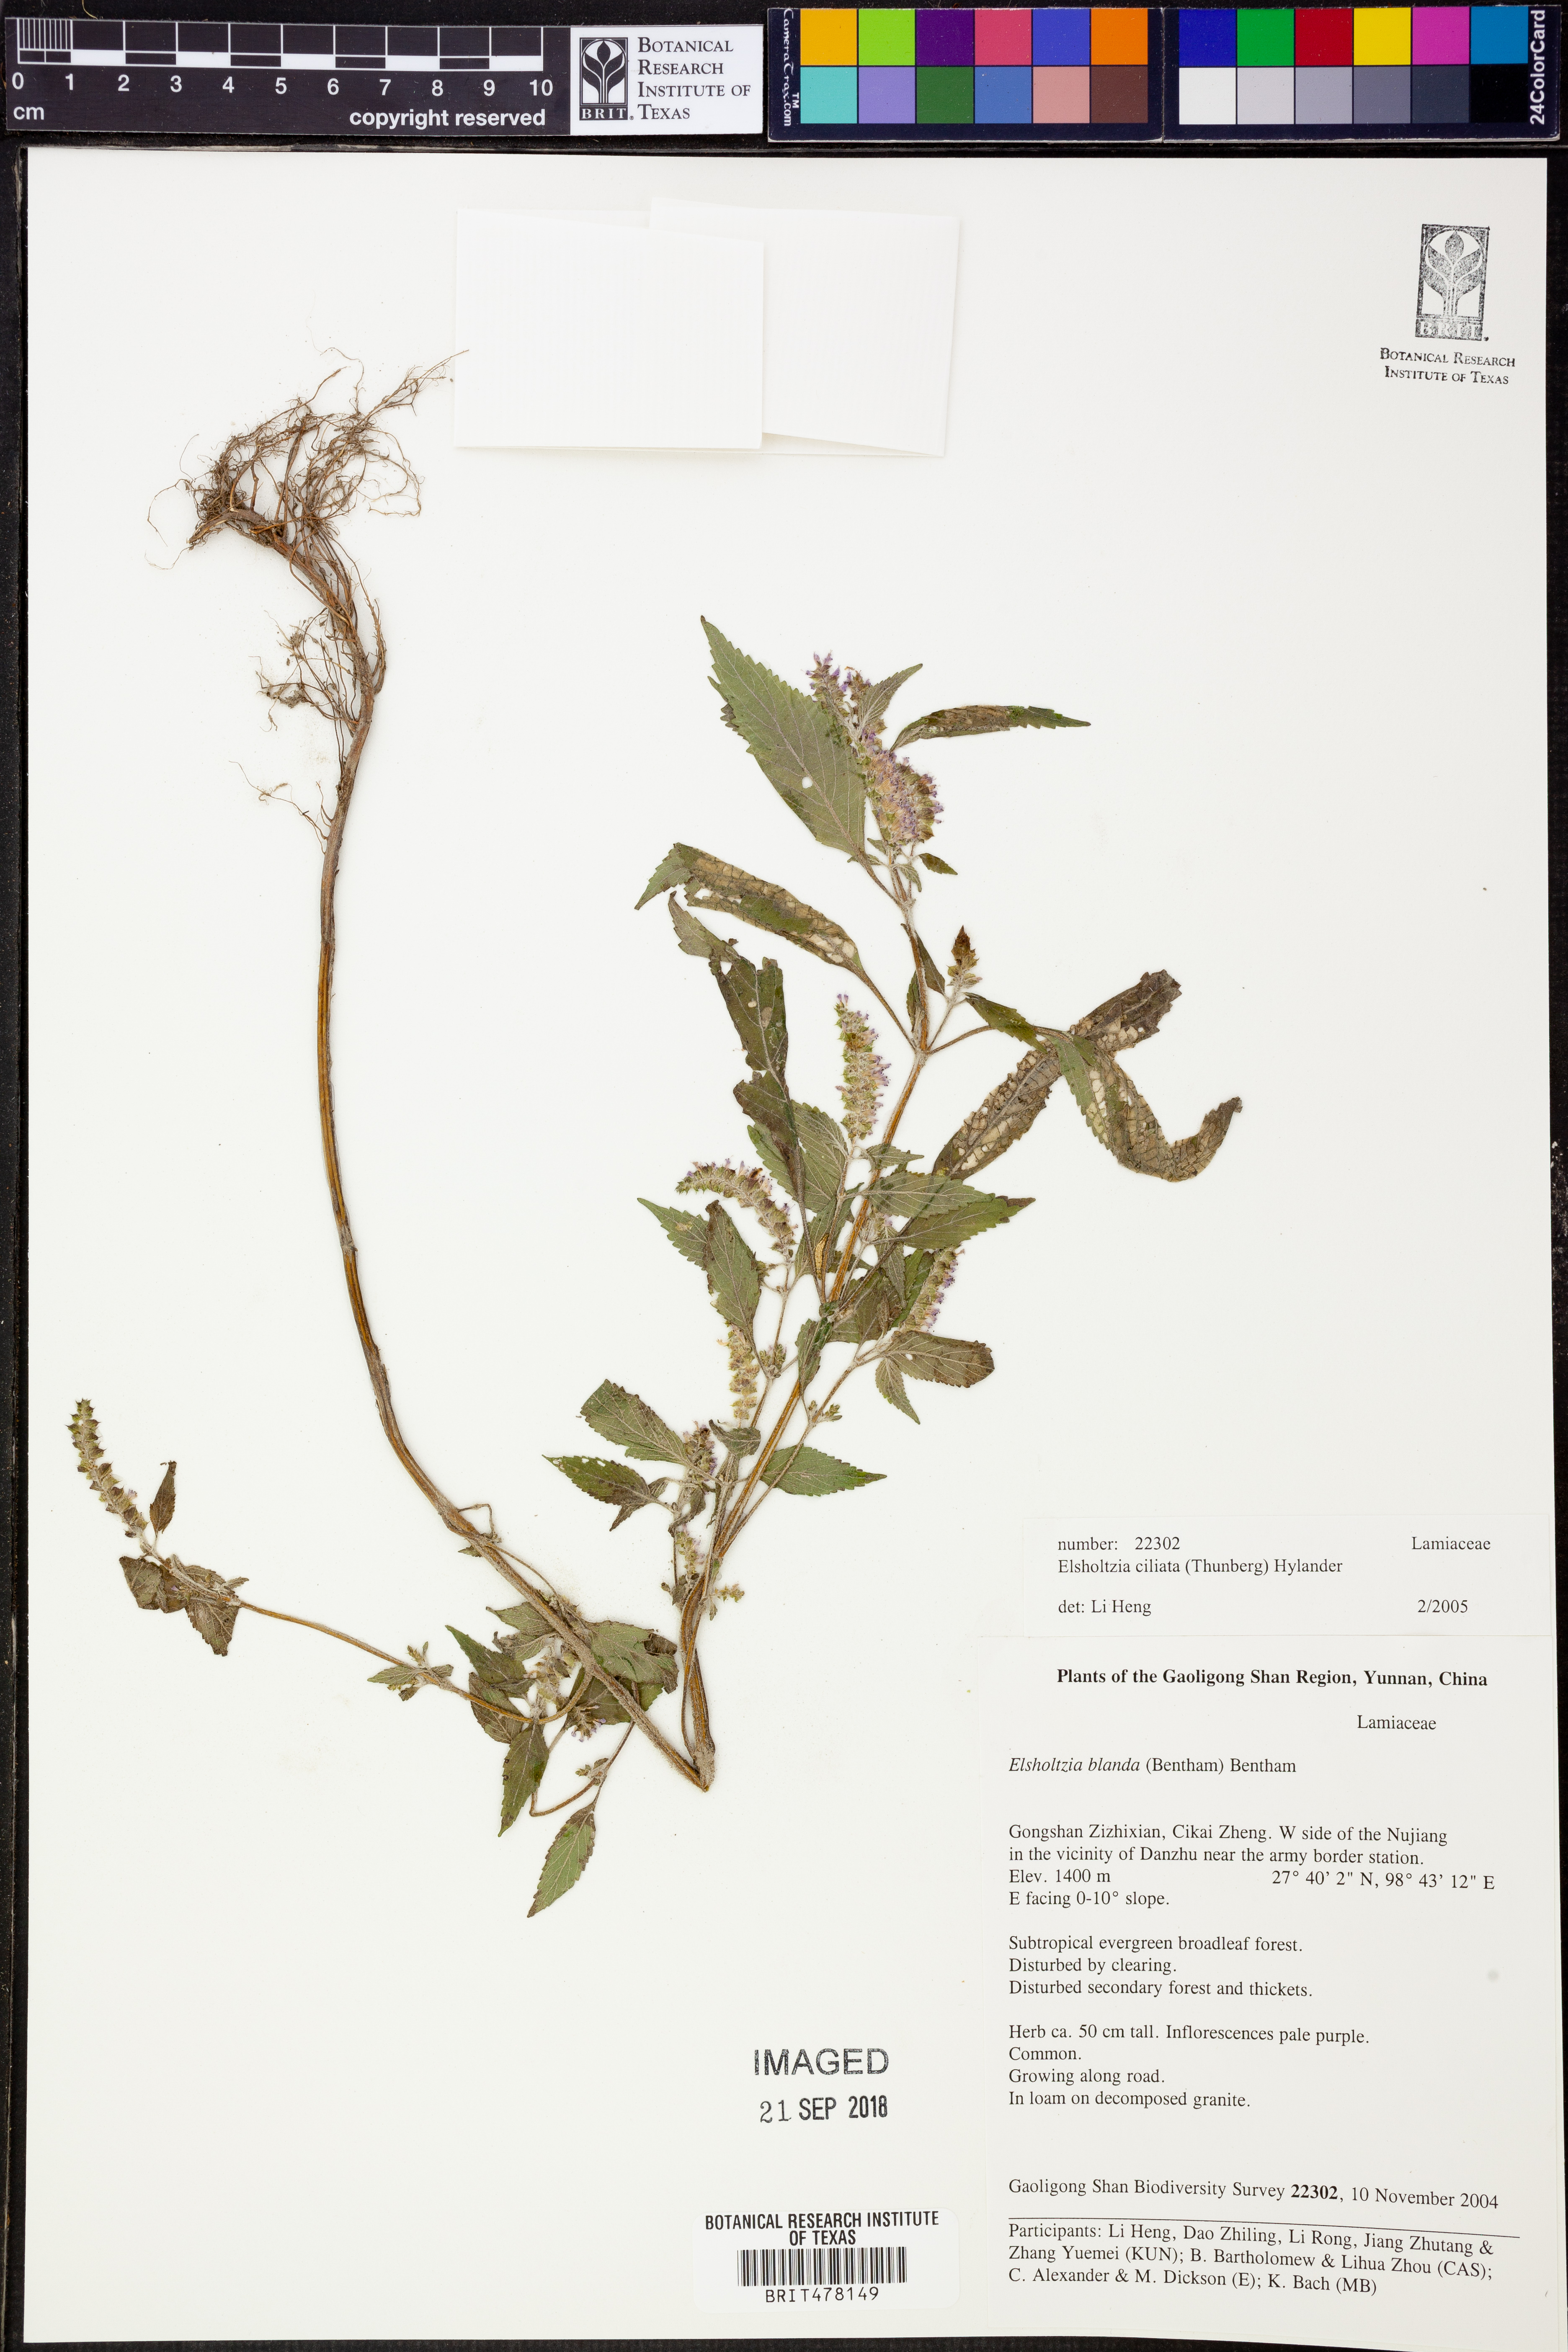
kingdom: Plantae
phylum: Tracheophyta
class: Magnoliopsida
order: Lamiales
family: Lamiaceae
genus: Elsholtzia
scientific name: Elsholtzia ciliata
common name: Ciliate elsholtzia
